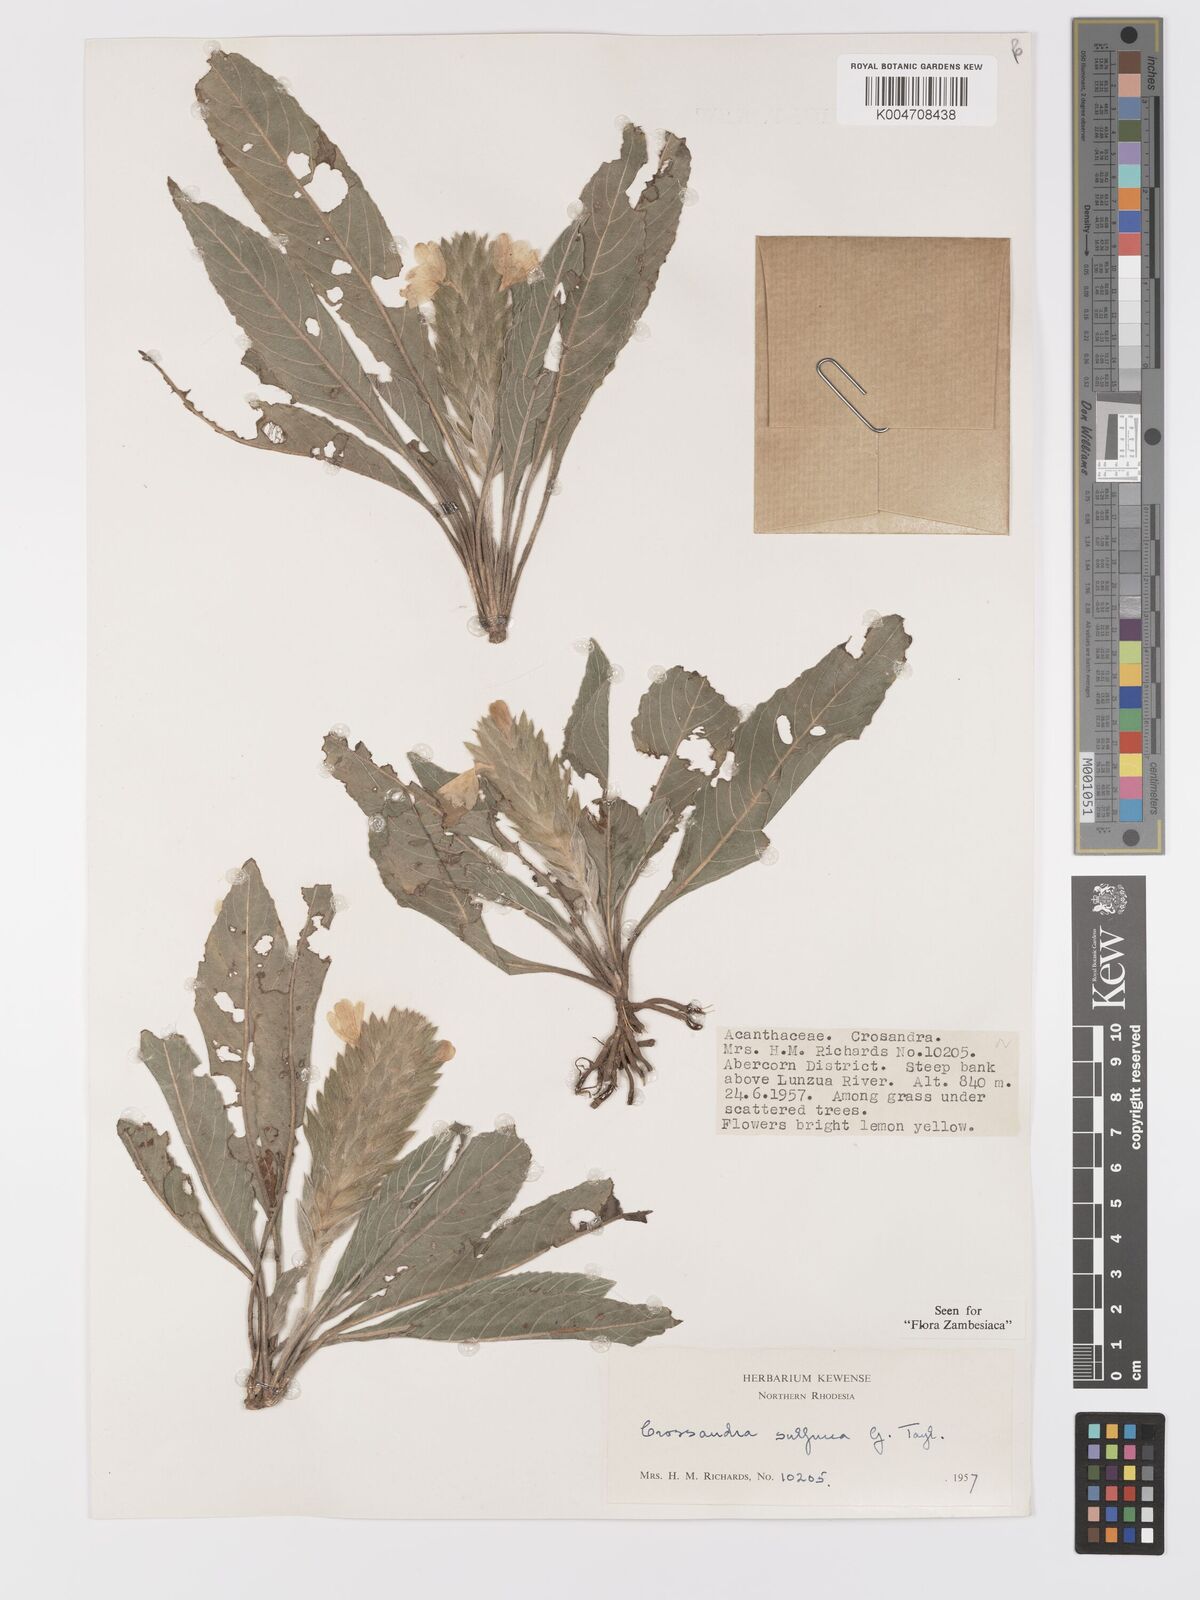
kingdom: Plantae
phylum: Tracheophyta
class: Magnoliopsida
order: Lamiales
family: Acanthaceae
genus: Crossandra
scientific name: Crossandra sulphurea
